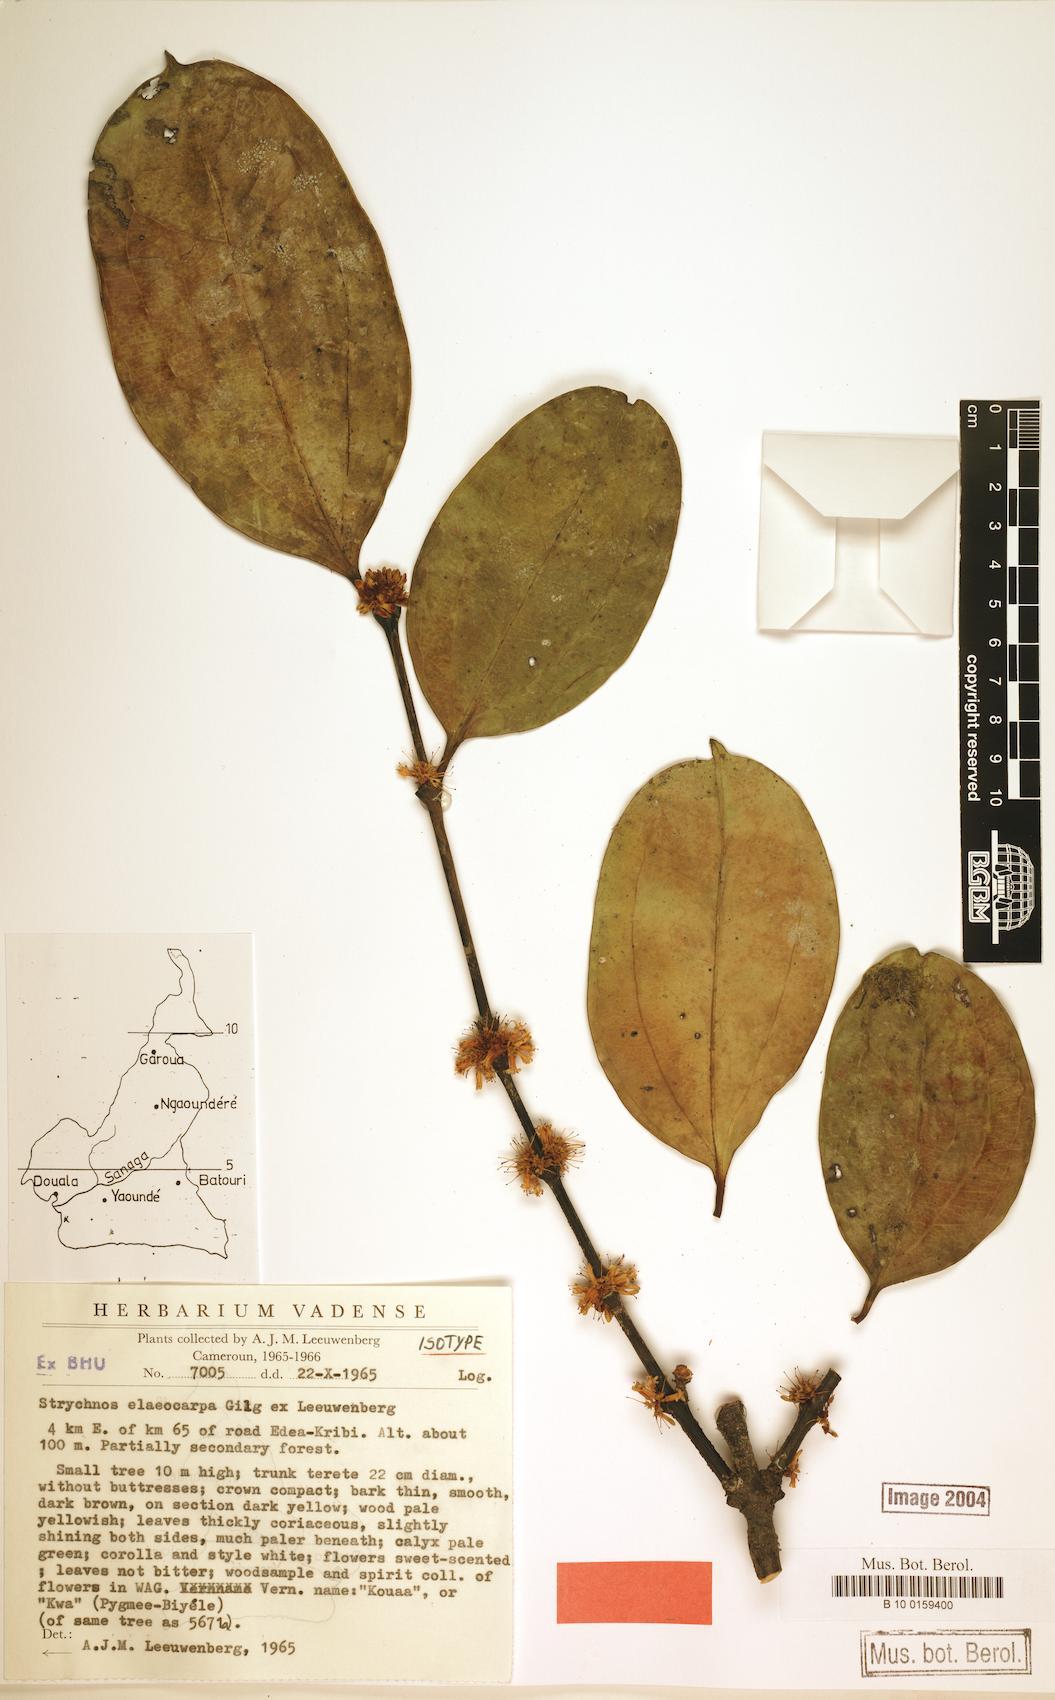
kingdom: Plantae
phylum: Tracheophyta
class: Magnoliopsida
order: Gentianales
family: Loganiaceae
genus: Strychnos
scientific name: Strychnos elaeocarpa
